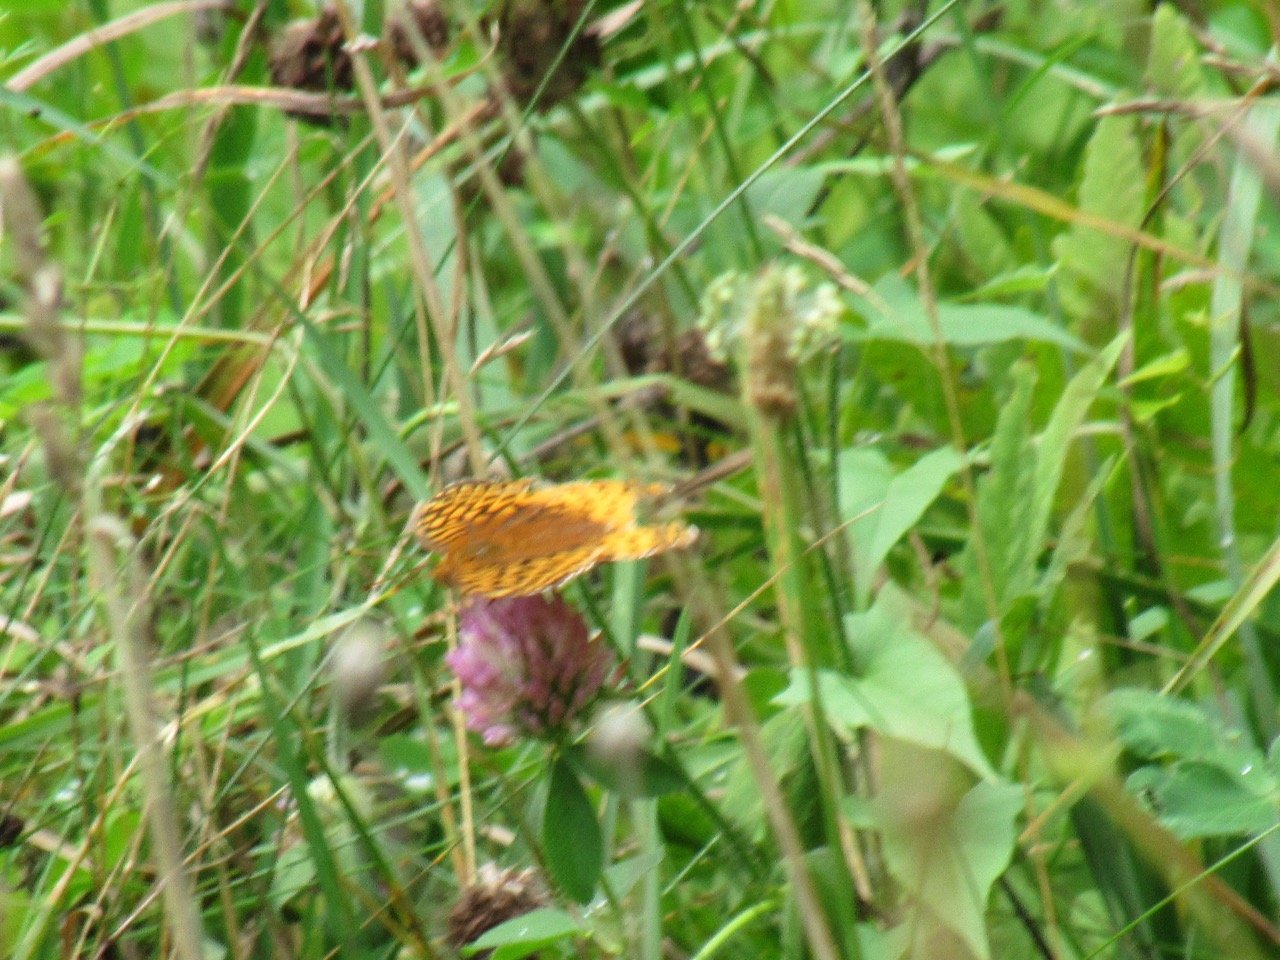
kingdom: Animalia
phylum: Arthropoda
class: Insecta
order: Lepidoptera
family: Nymphalidae
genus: Speyeria
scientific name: Speyeria cybele
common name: Great Spangled Fritillary
